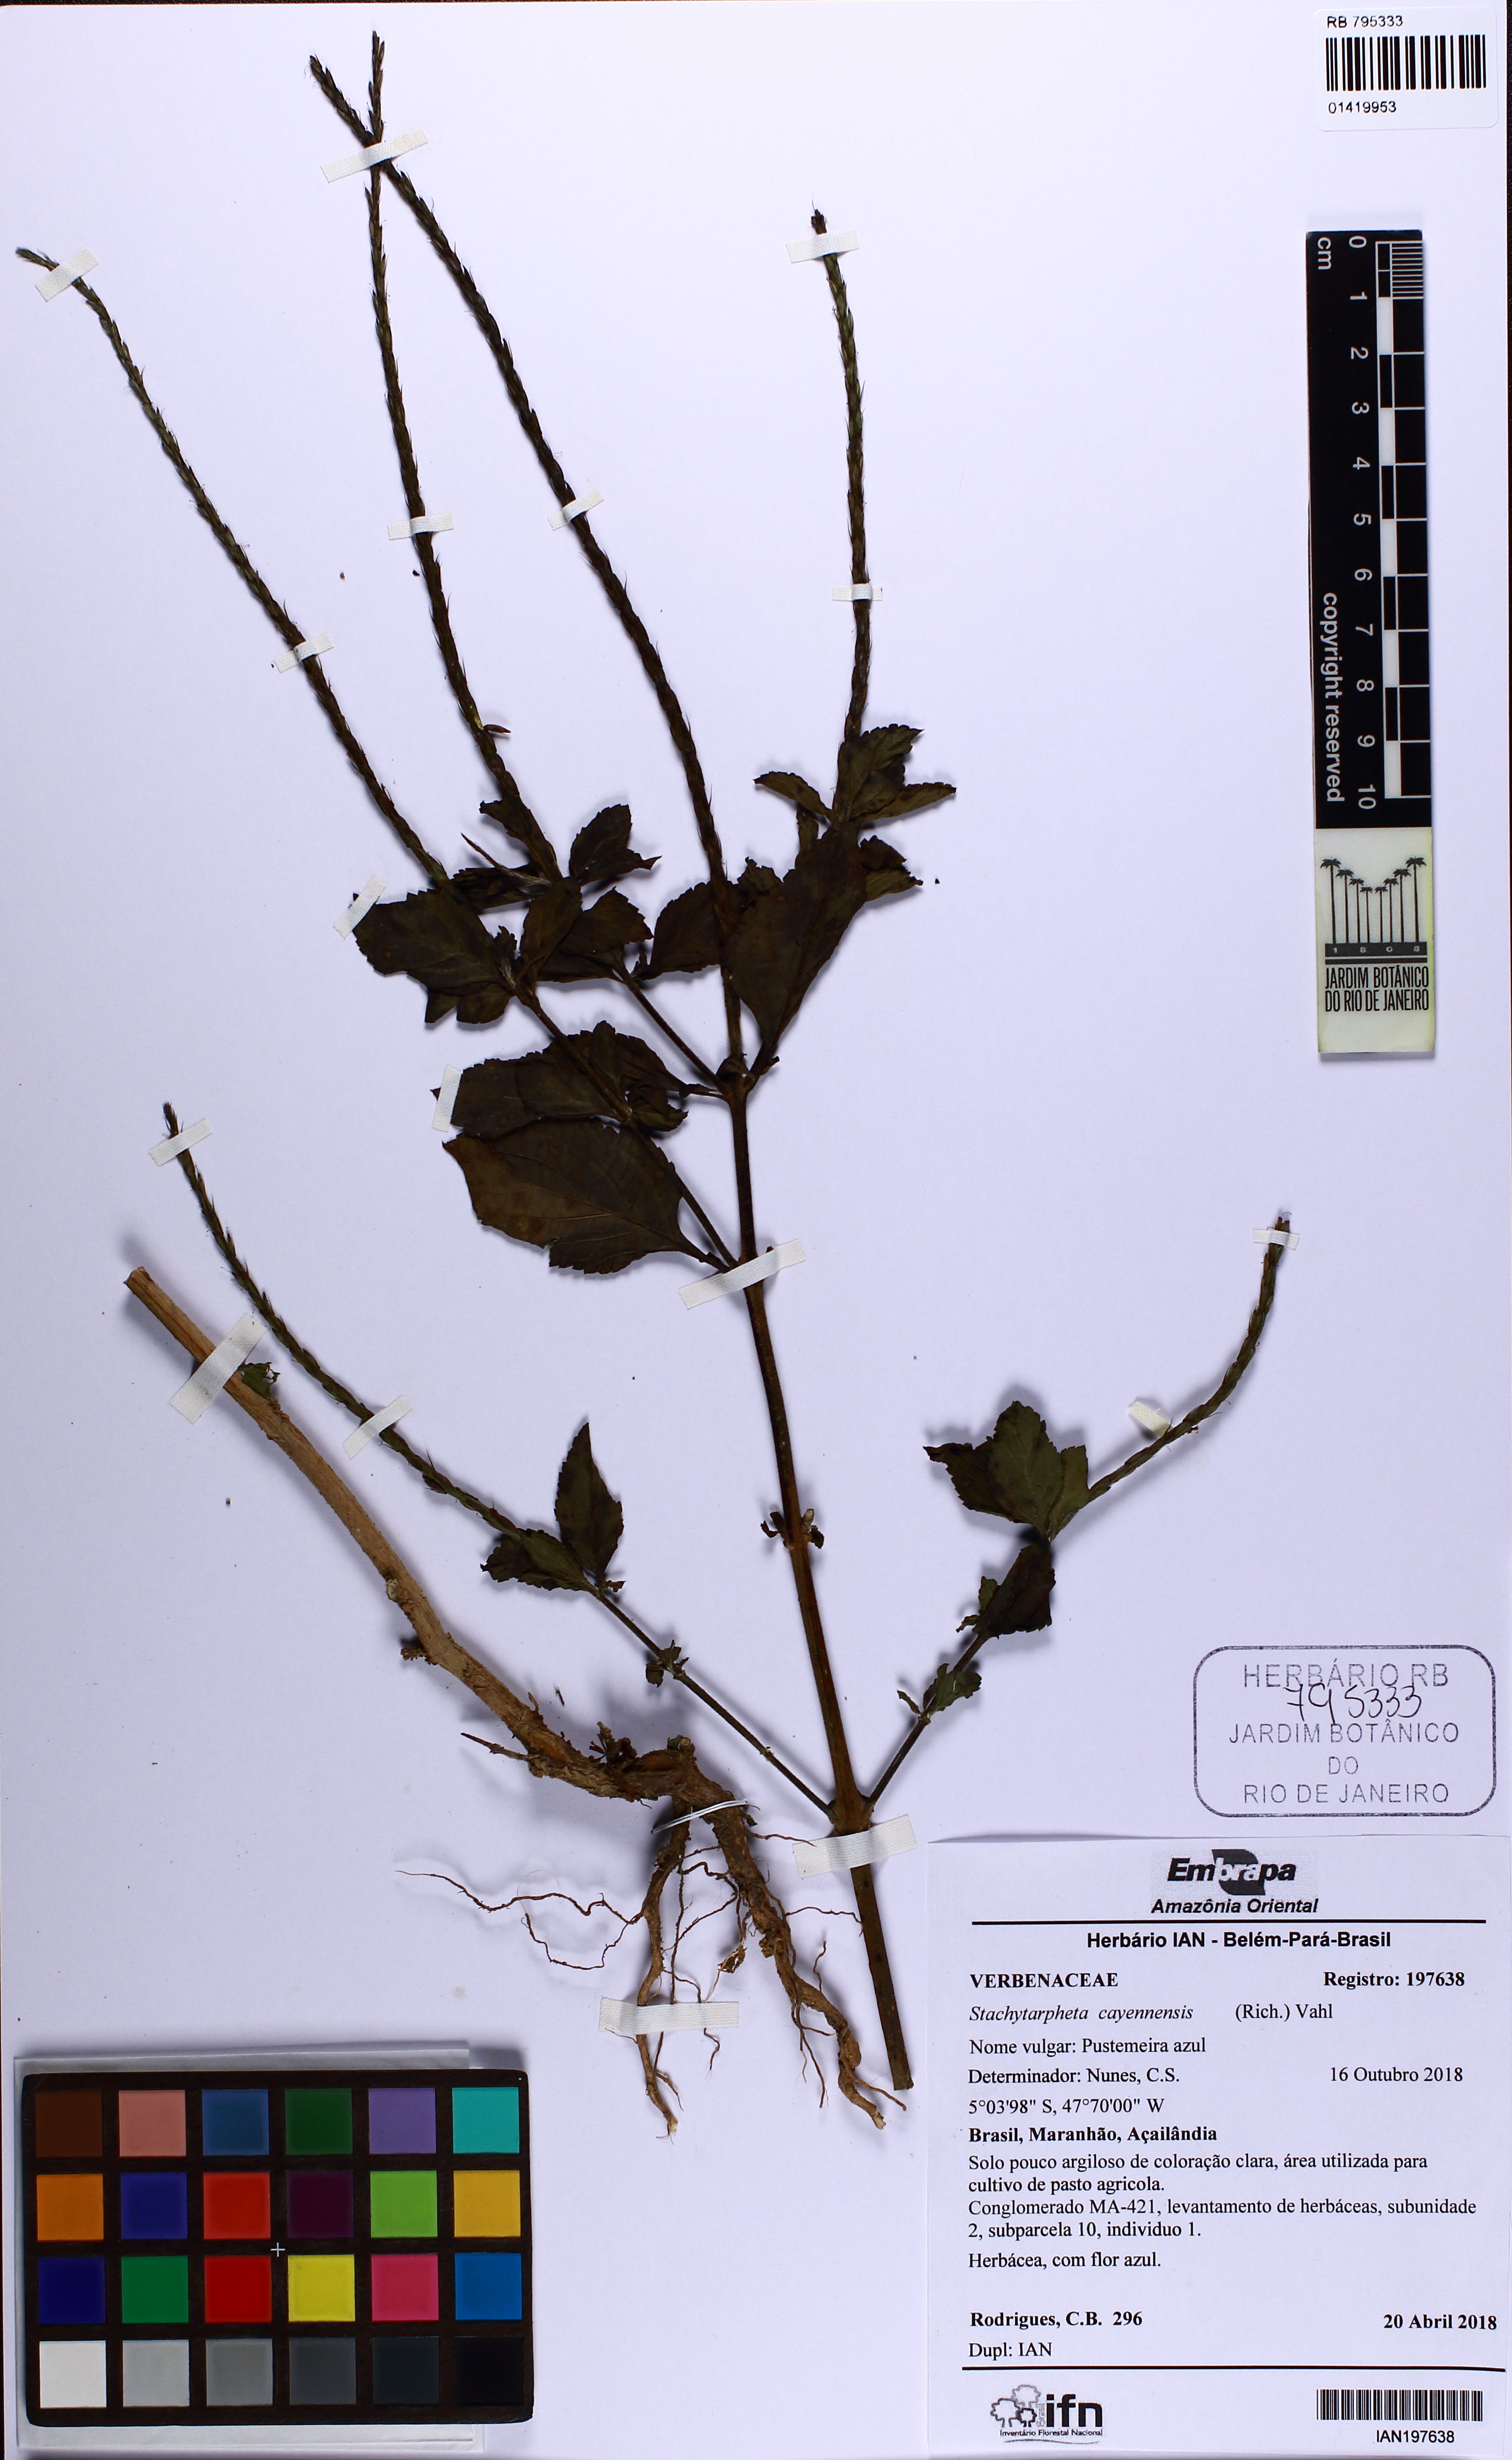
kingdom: Plantae
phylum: Tracheophyta
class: Magnoliopsida
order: Lamiales
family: Verbenaceae
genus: Stachytarpheta
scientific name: Stachytarpheta cayennensis
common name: Cayenne porterweed
